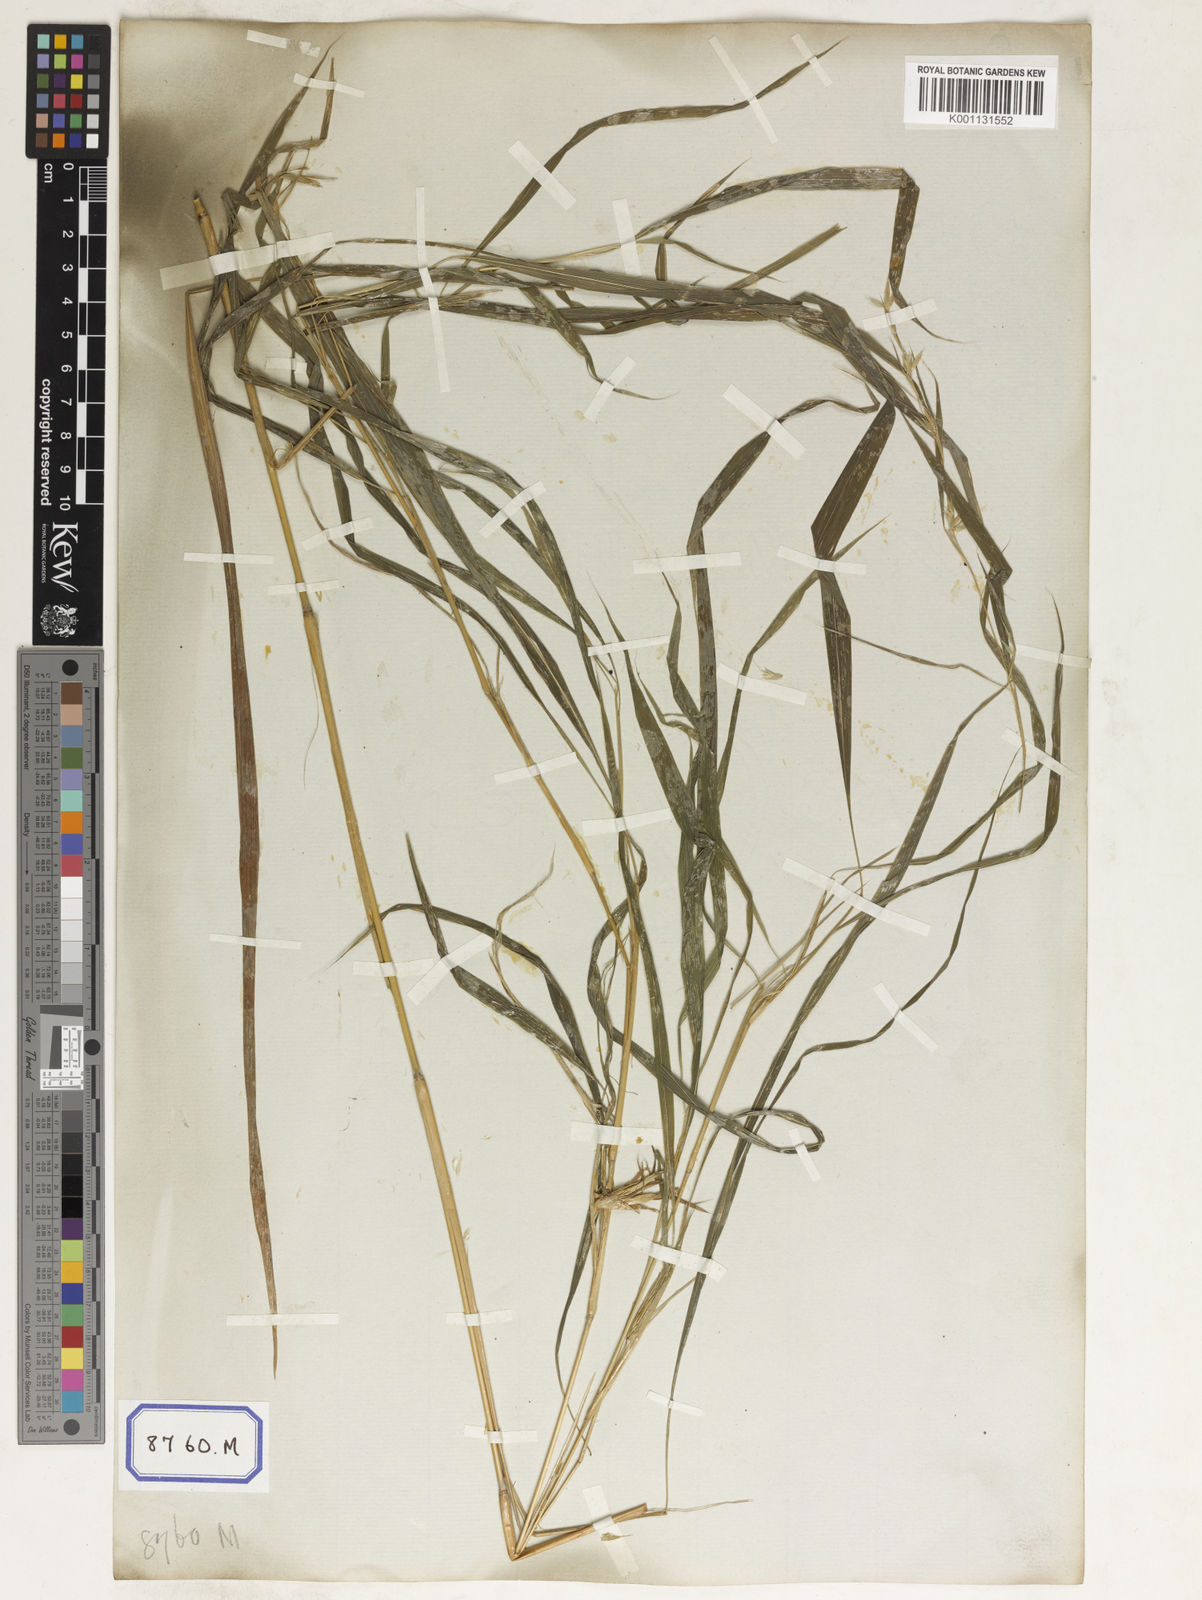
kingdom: Plantae
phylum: Tracheophyta
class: Liliopsida
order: Poales
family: Poaceae
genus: Apluda
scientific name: Apluda
